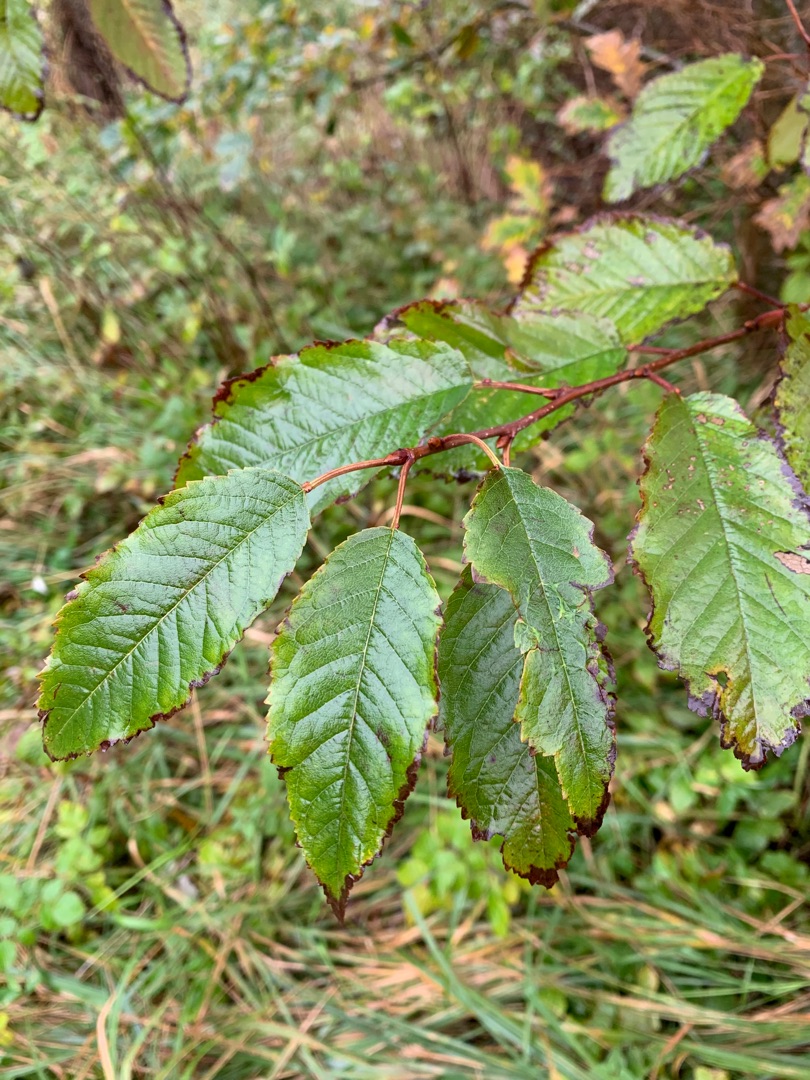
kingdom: Plantae
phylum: Tracheophyta
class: Magnoliopsida
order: Rosales
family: Rosaceae
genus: Prunus
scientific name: Prunus avium
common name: Fugle-kirsebær
